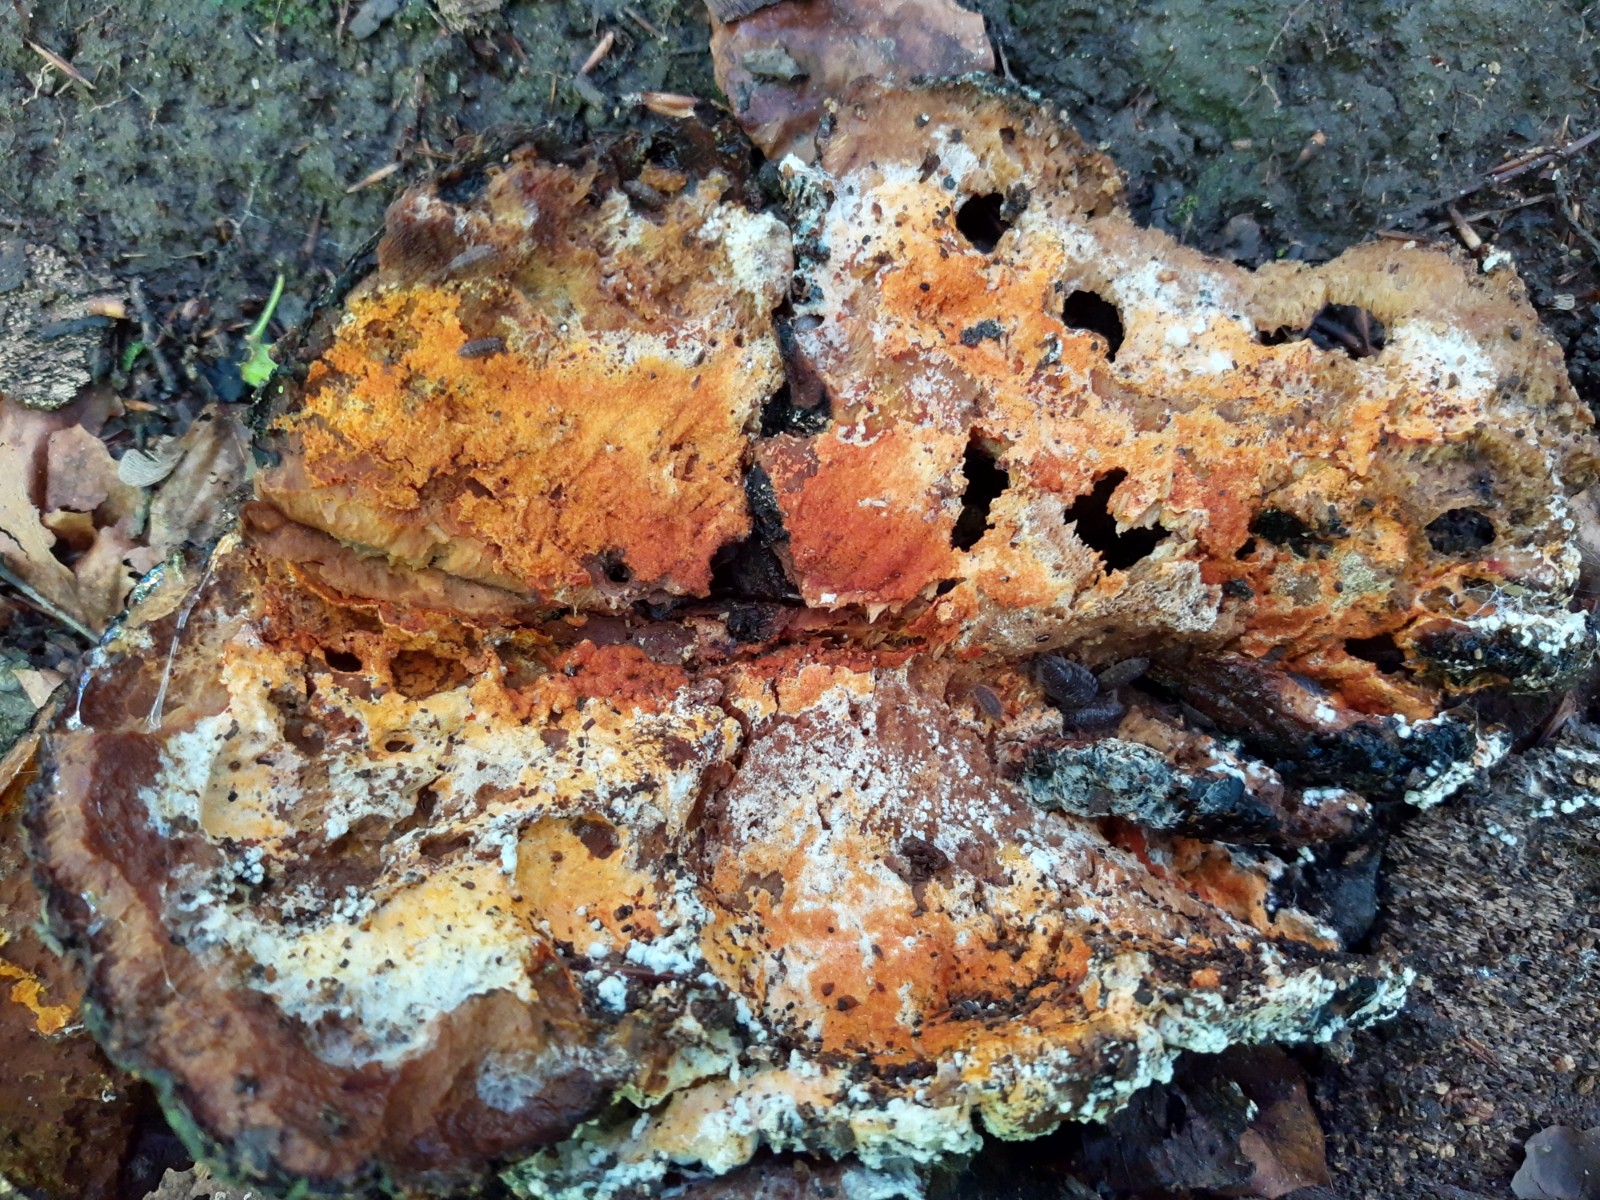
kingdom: Fungi
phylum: Ascomycota
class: Sordariomycetes
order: Hypocreales
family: Hypocreaceae
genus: Hypomyces
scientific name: Hypomyces aurantius
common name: almindelig snylteskorpe
